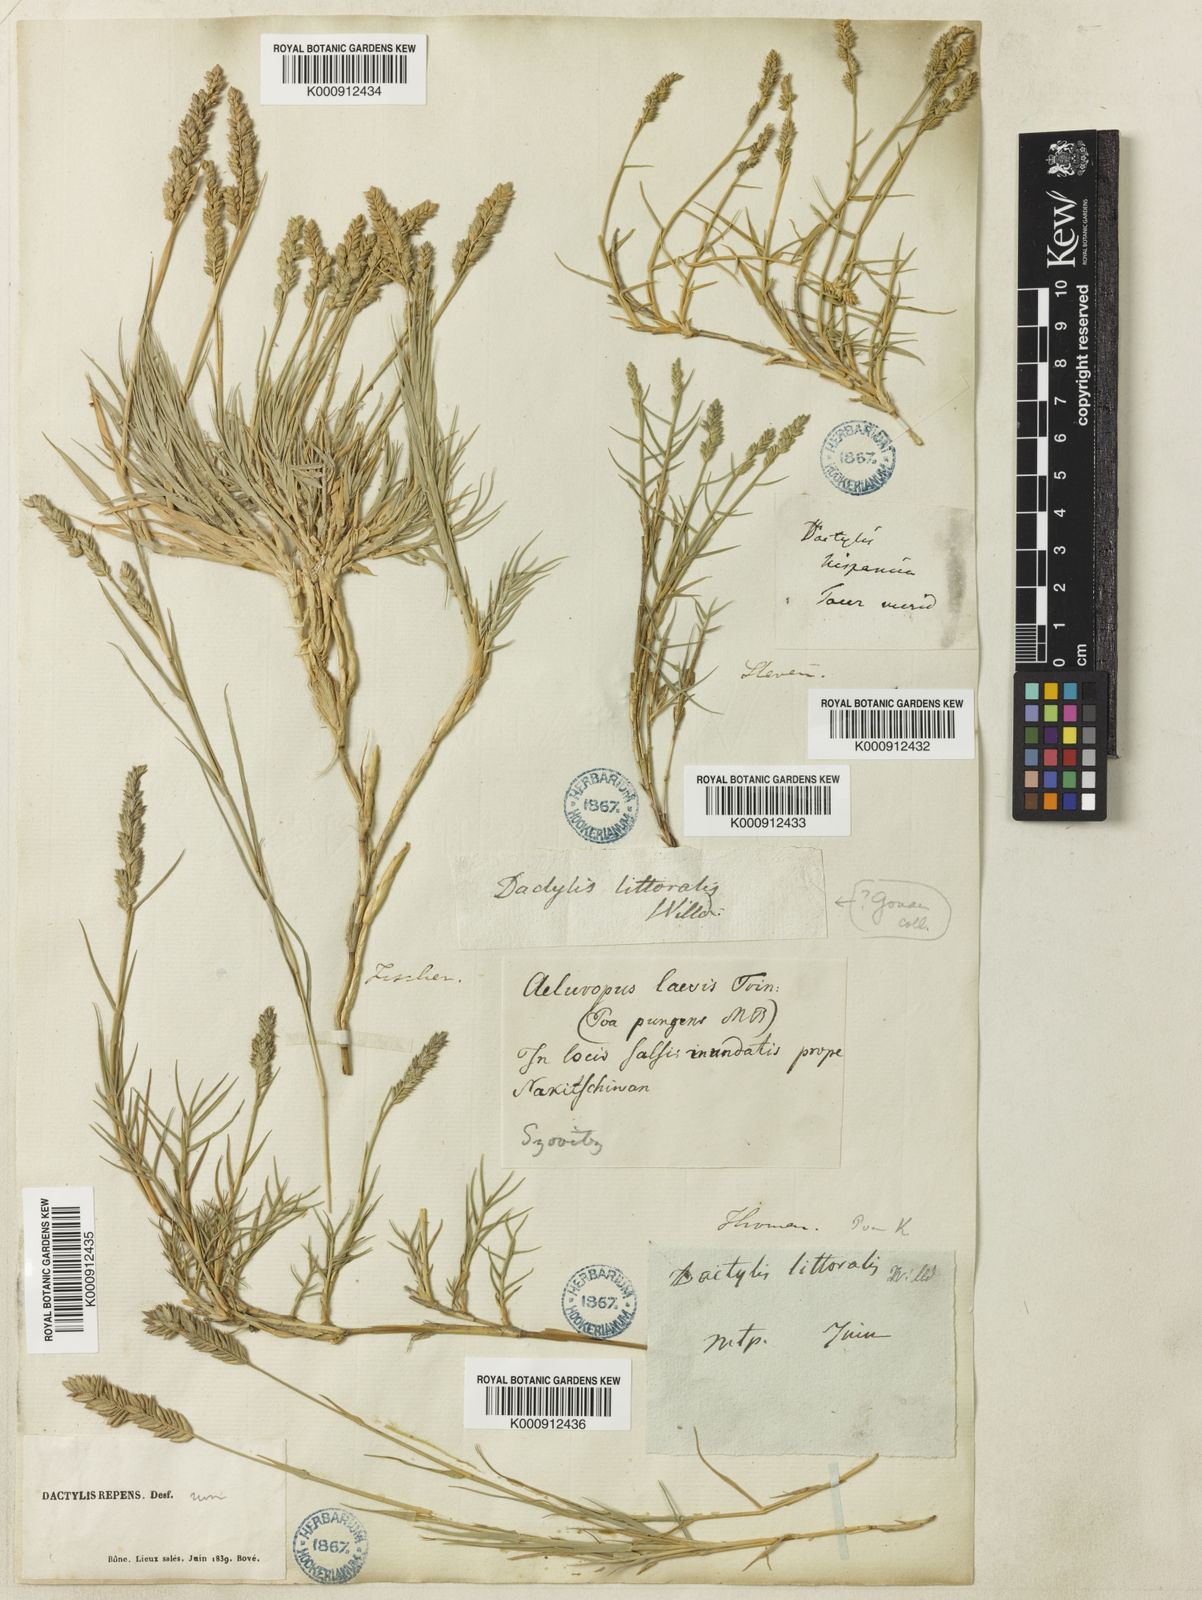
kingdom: Plantae
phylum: Tracheophyta
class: Liliopsida
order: Poales
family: Poaceae
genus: Aeluropus
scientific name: Aeluropus littoralis
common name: Indian walnut
